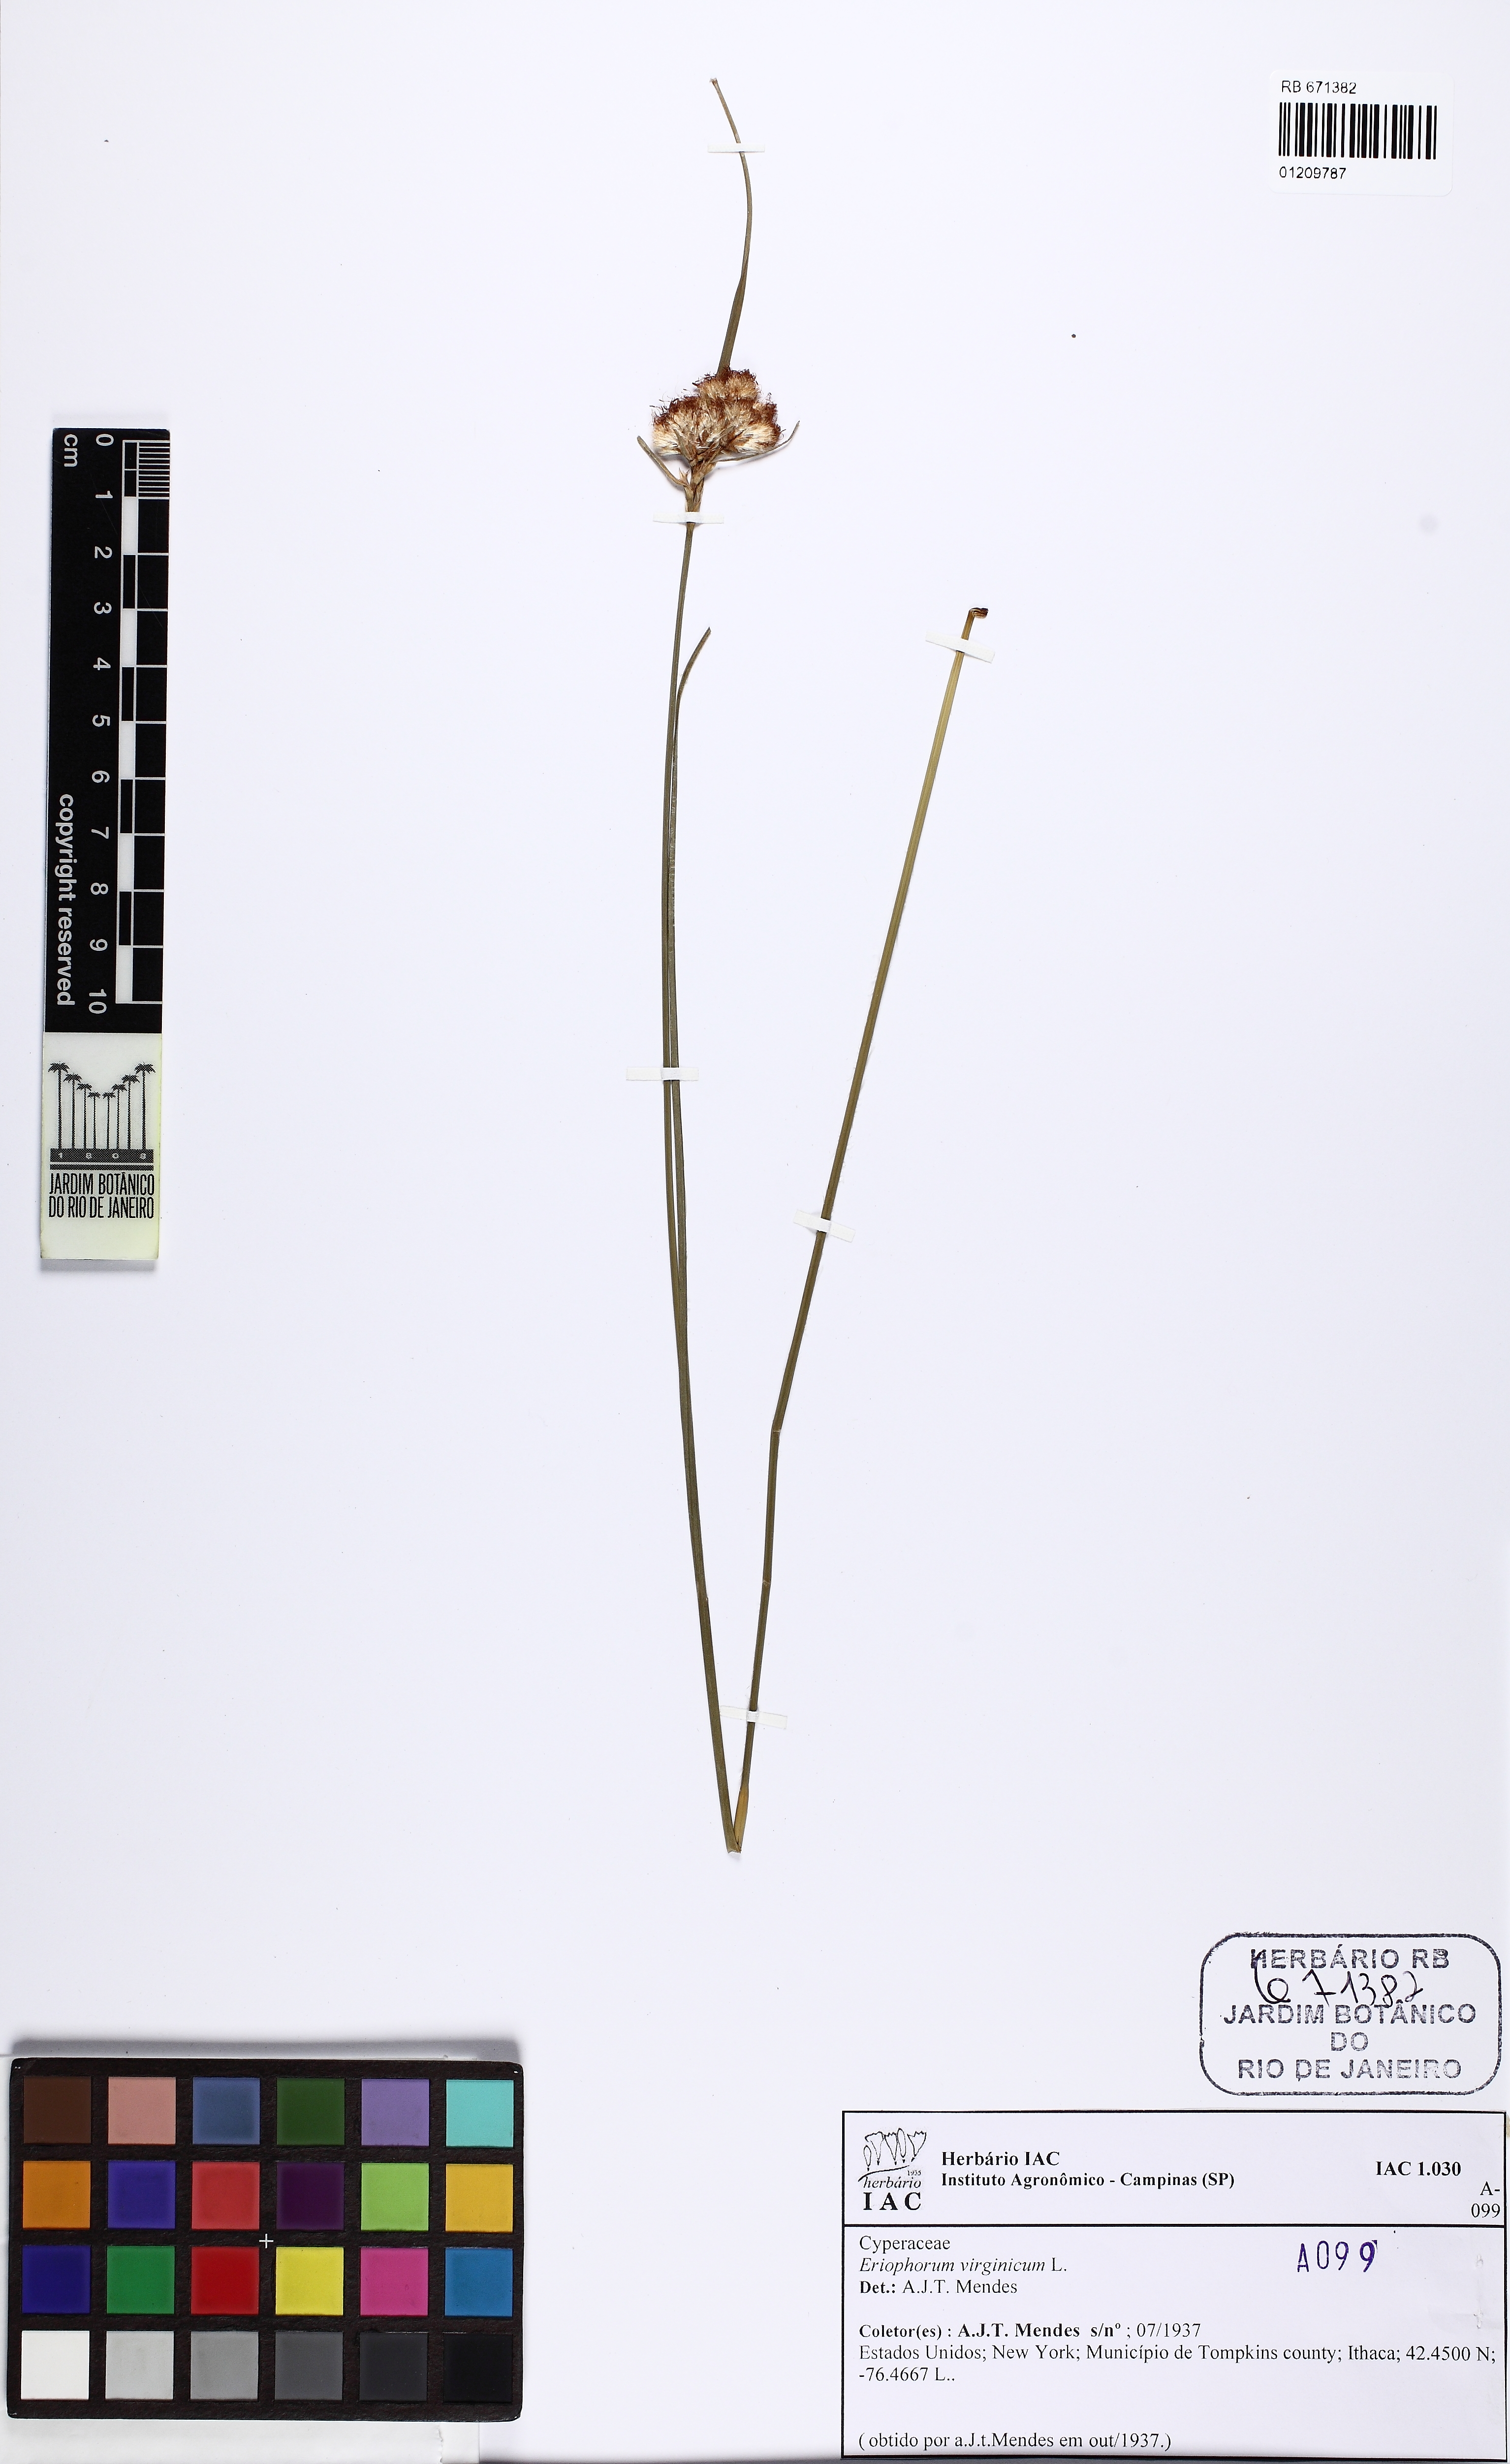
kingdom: Plantae
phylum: Tracheophyta
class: Liliopsida
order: Poales
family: Cyperaceae
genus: Eriophorum
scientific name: Eriophorum virginicum
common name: Tawny cottongrass
